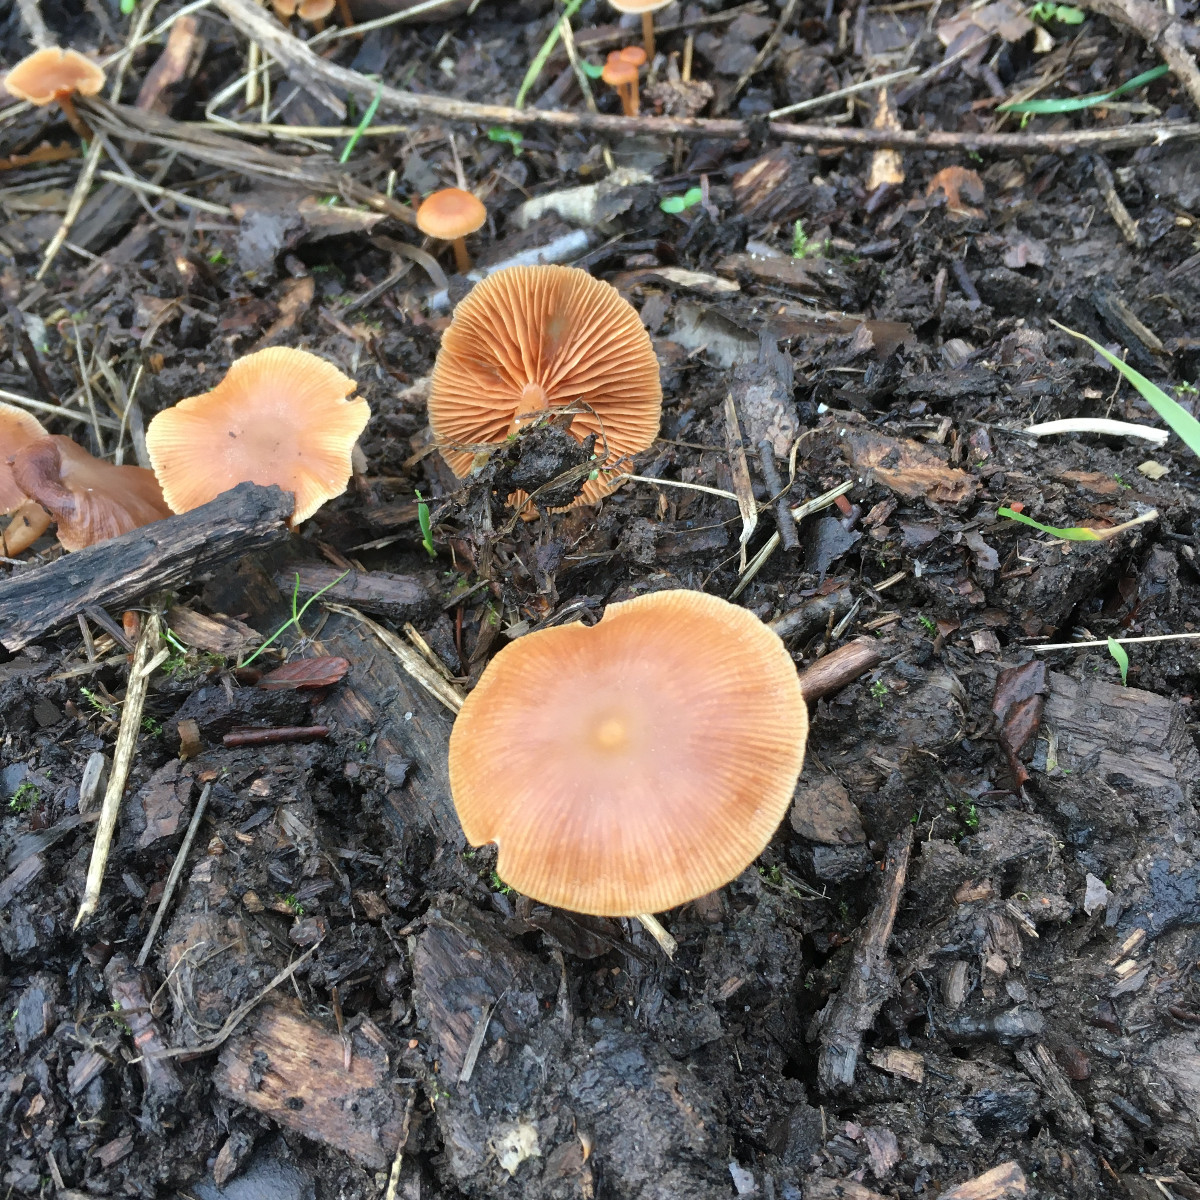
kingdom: Fungi
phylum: Basidiomycota
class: Agaricomycetes
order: Agaricales
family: Tubariaceae
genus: Tubaria
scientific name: Tubaria furfuracea
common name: kliddet fnughat
